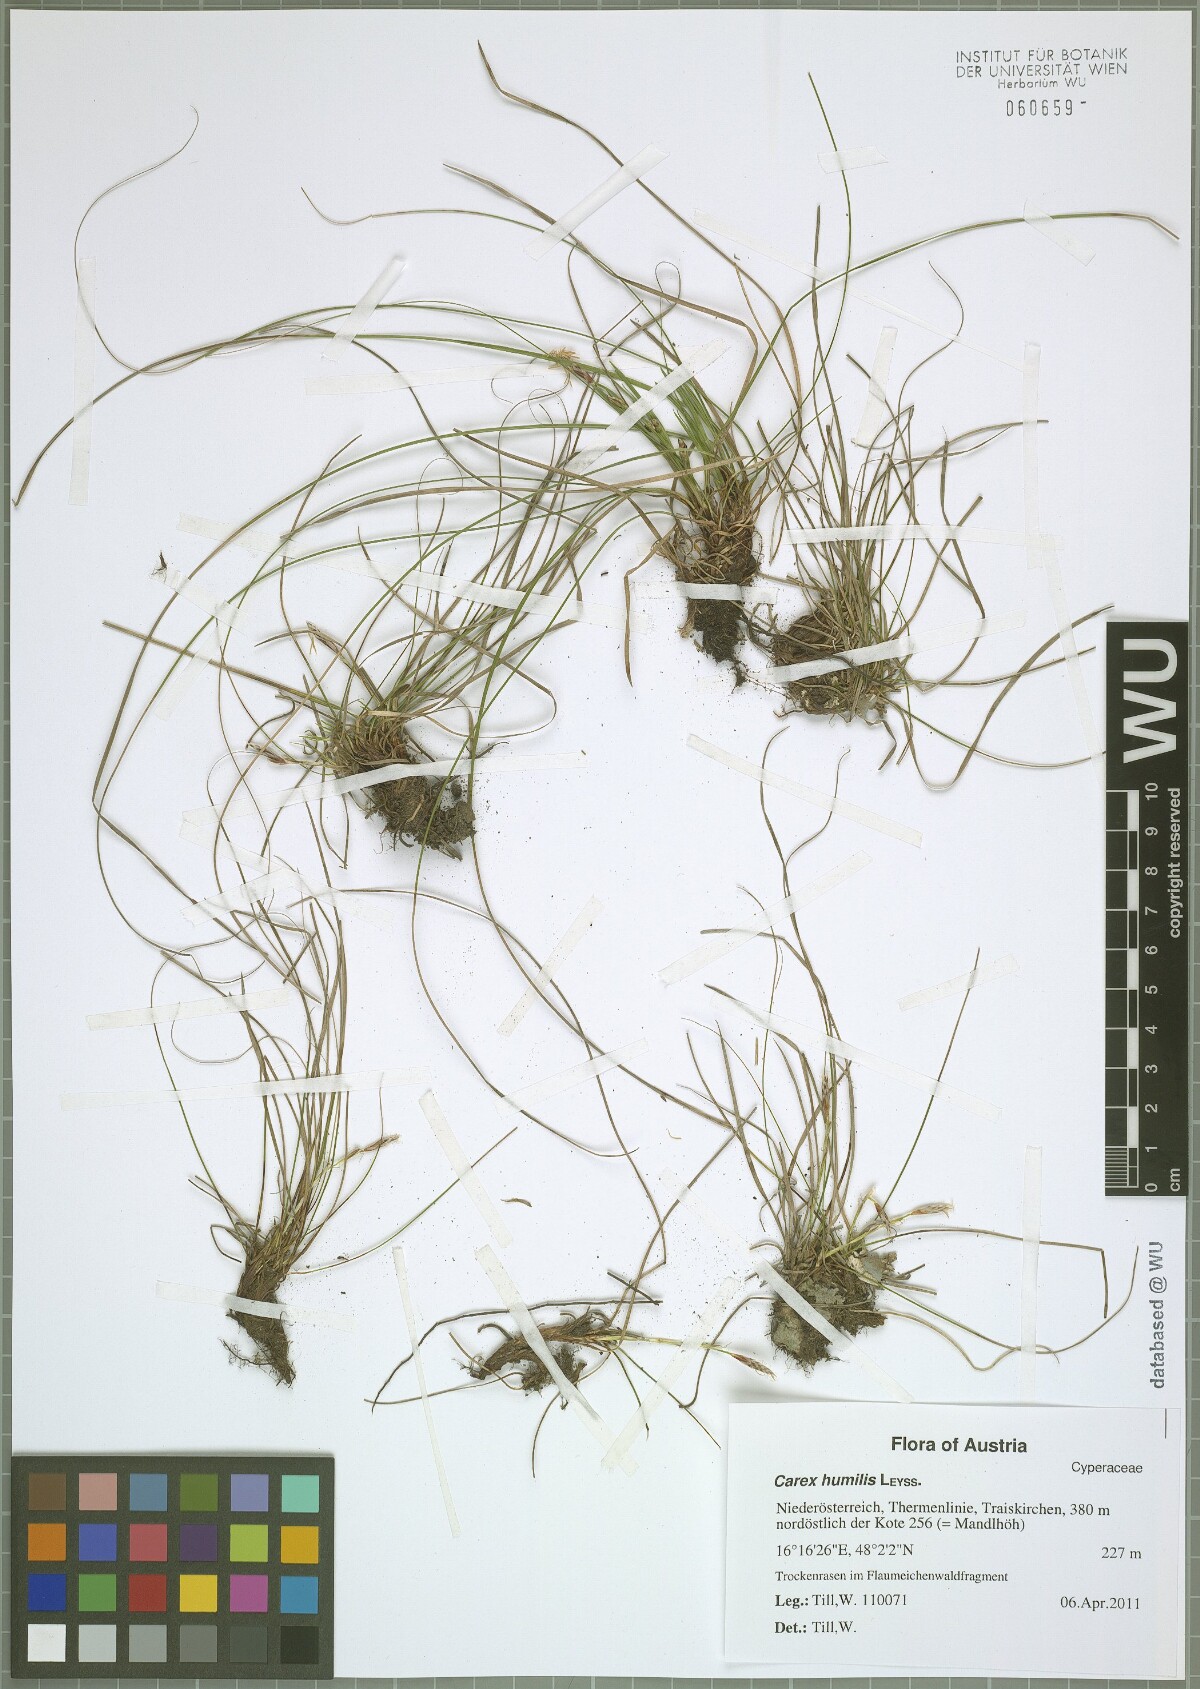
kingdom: Plantae
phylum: Tracheophyta
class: Liliopsida
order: Poales
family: Cyperaceae
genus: Carex
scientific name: Carex humilis
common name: Dwarf sedge
